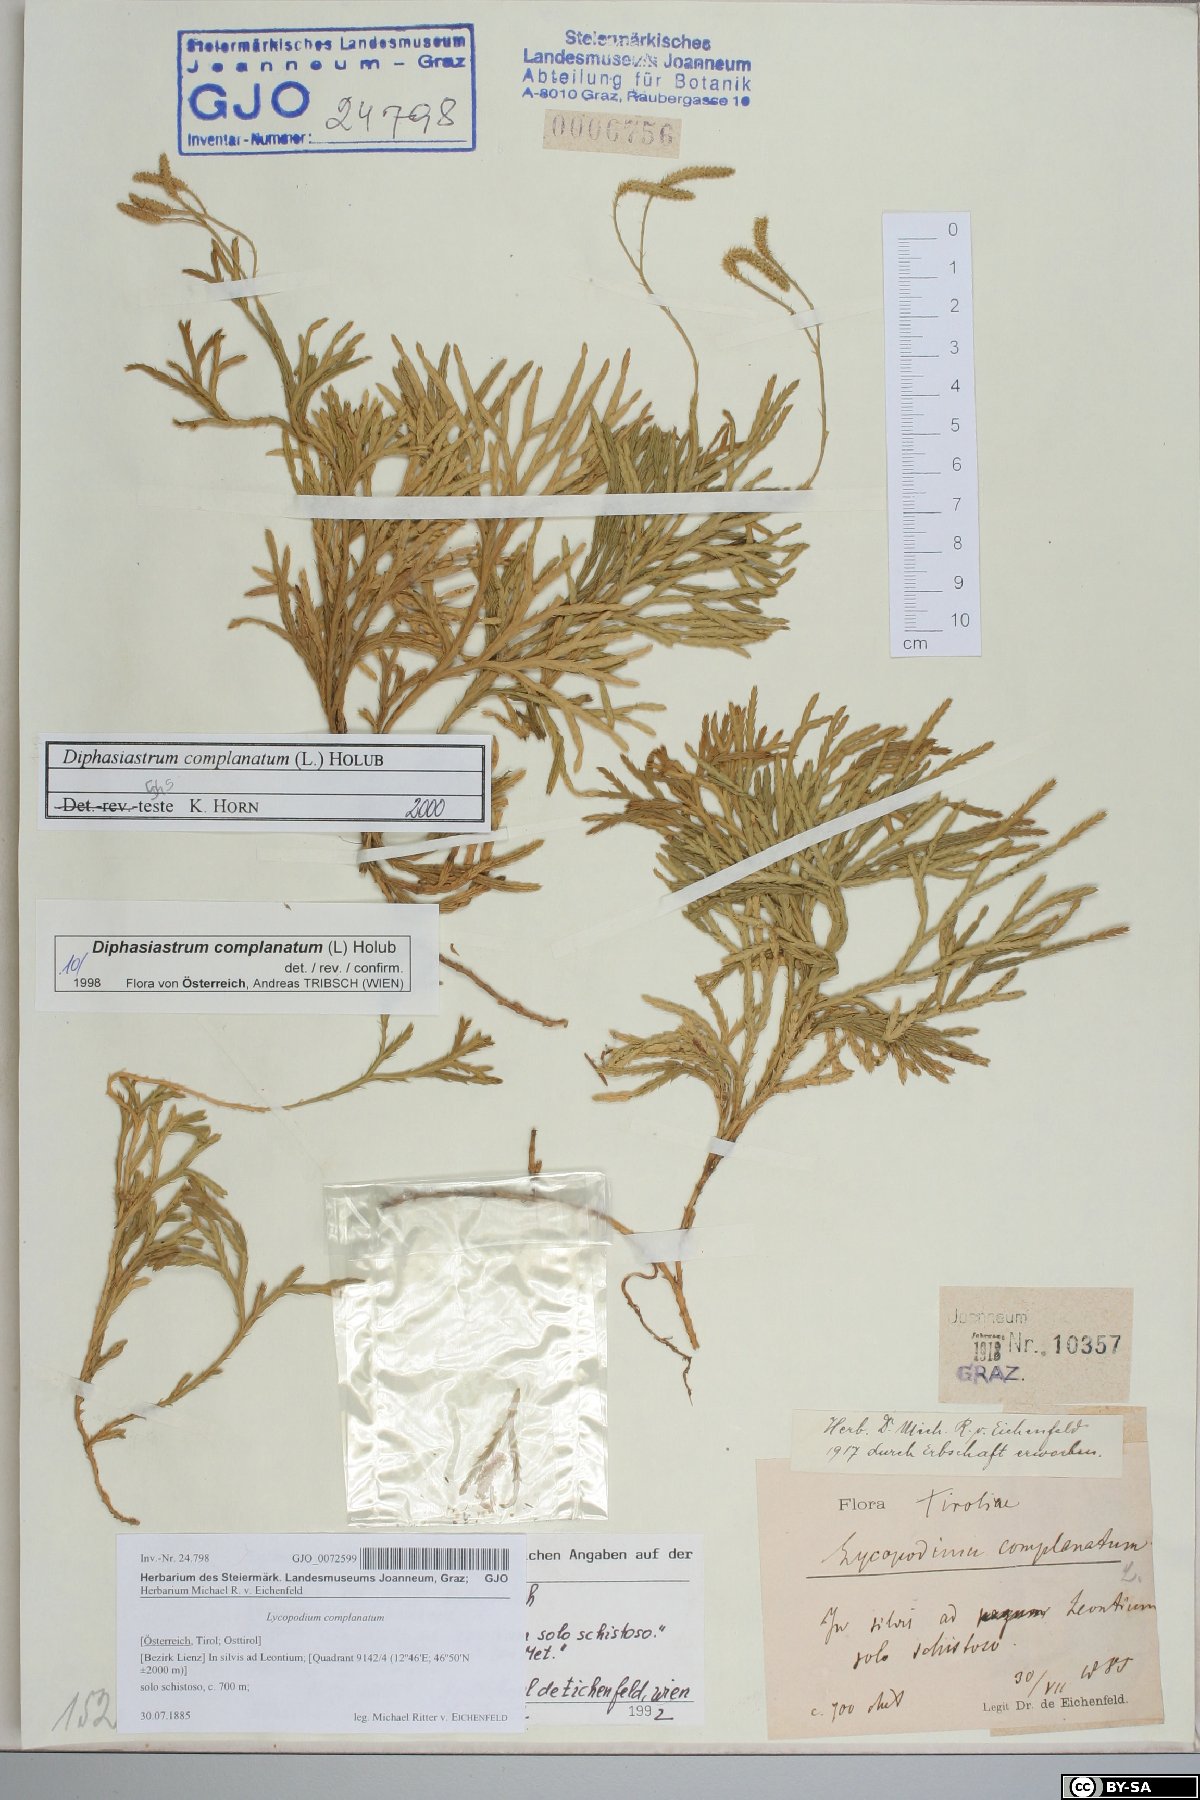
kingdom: Plantae
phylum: Tracheophyta
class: Lycopodiopsida
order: Lycopodiales
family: Lycopodiaceae
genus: Diphasiastrum
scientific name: Diphasiastrum complanatum
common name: Northern running-pine
